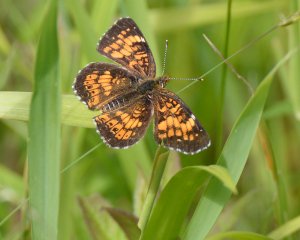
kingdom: Animalia
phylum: Arthropoda
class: Insecta
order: Lepidoptera
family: Nymphalidae
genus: Chlosyne
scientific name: Chlosyne harrisii
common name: Harris's Checkerspot
